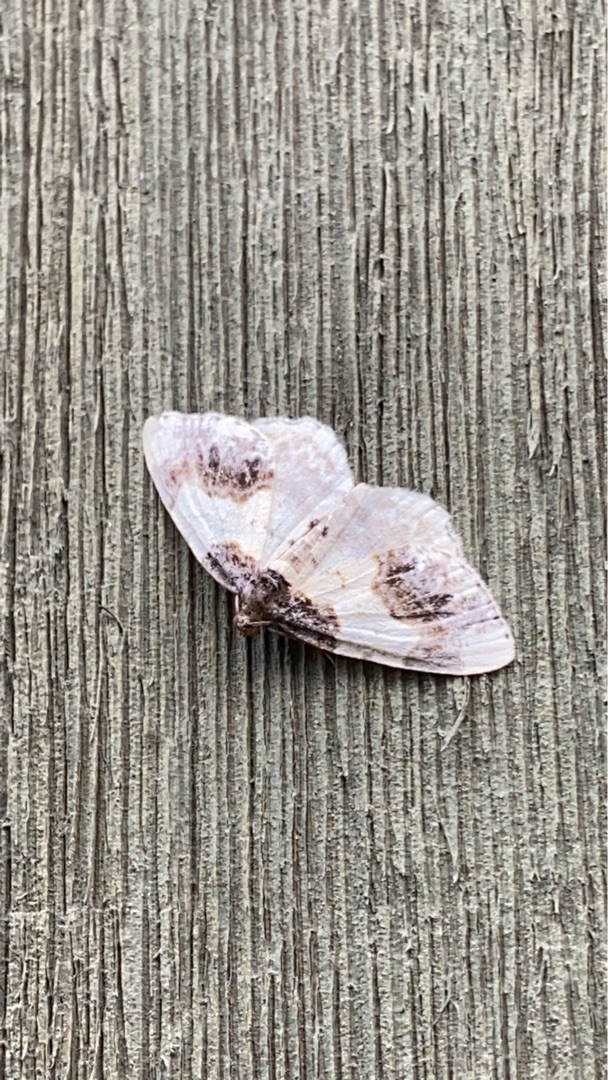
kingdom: Animalia
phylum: Arthropoda
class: Insecta
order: Lepidoptera
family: Geometridae
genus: Ligdia
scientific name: Ligdia adustata
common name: Benvedmåler
